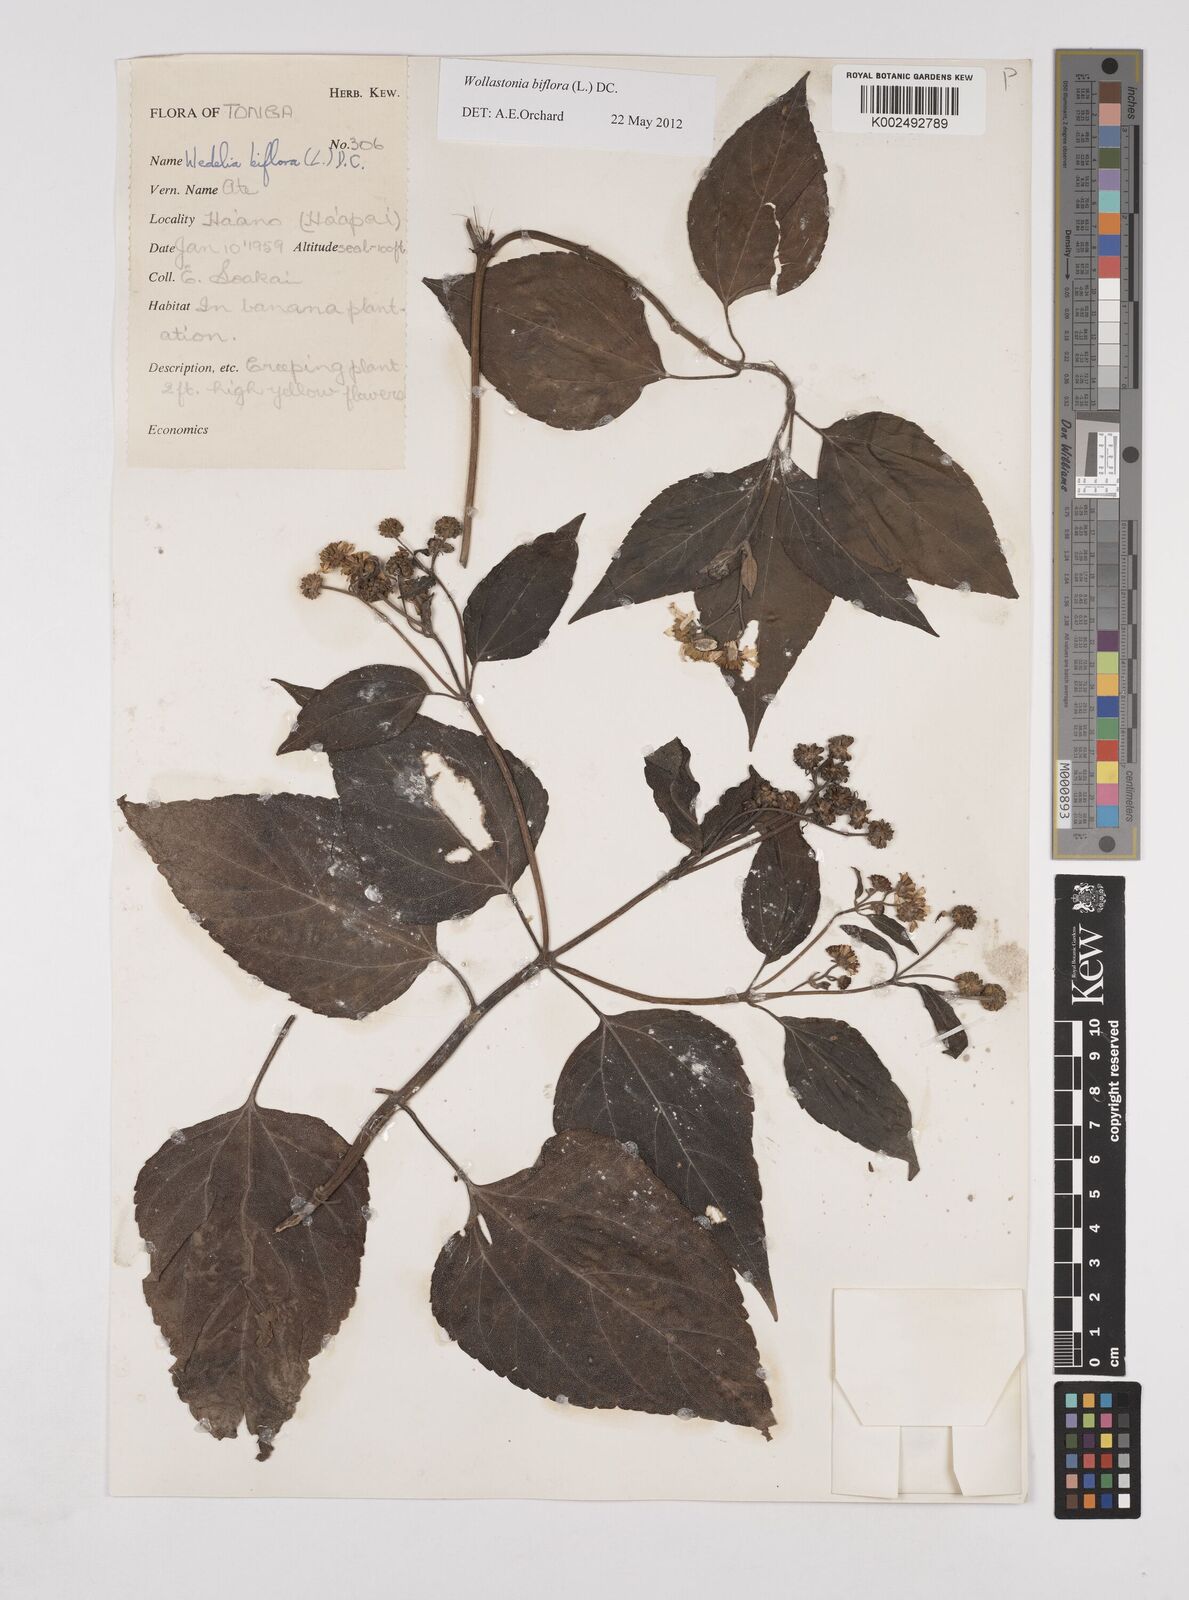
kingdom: Plantae
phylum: Tracheophyta
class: Magnoliopsida
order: Asterales
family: Asteraceae
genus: Wollastonia
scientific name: Wollastonia biflora
